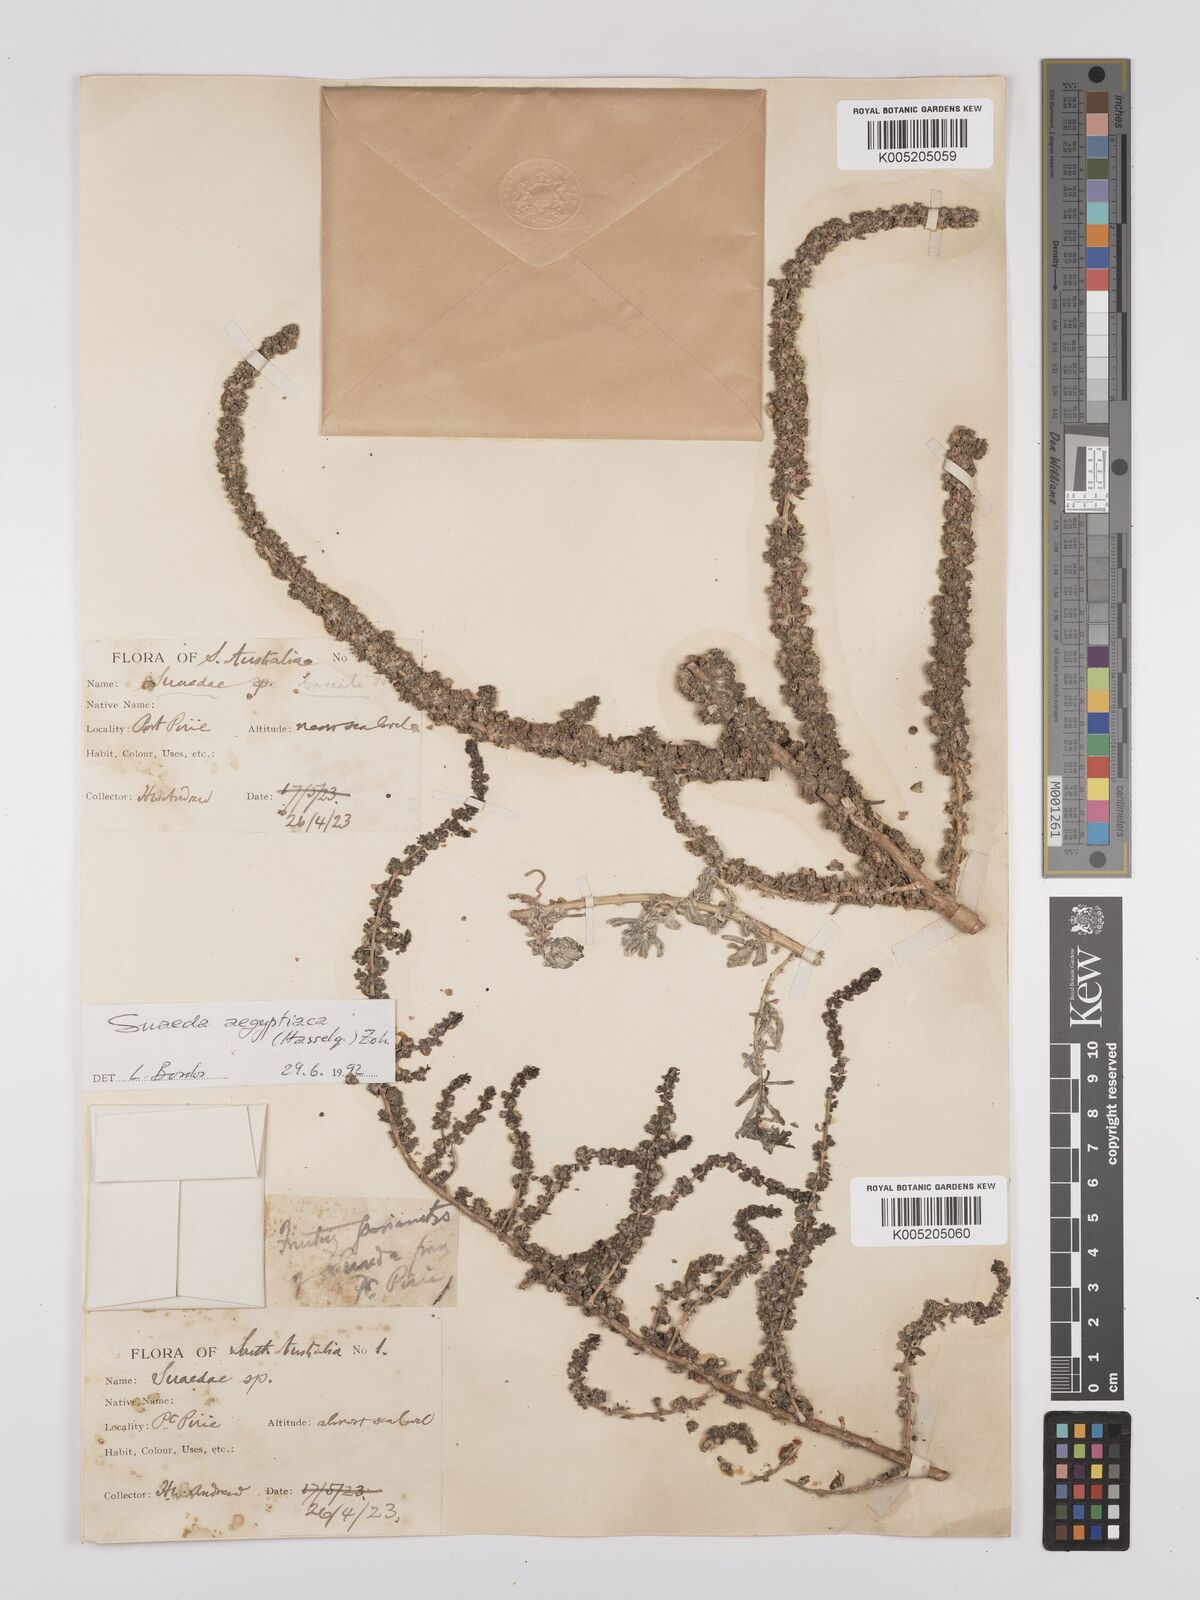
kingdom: Plantae
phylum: Tracheophyta
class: Magnoliopsida
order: Caryophyllales
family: Amaranthaceae
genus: Suaeda
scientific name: Suaeda
